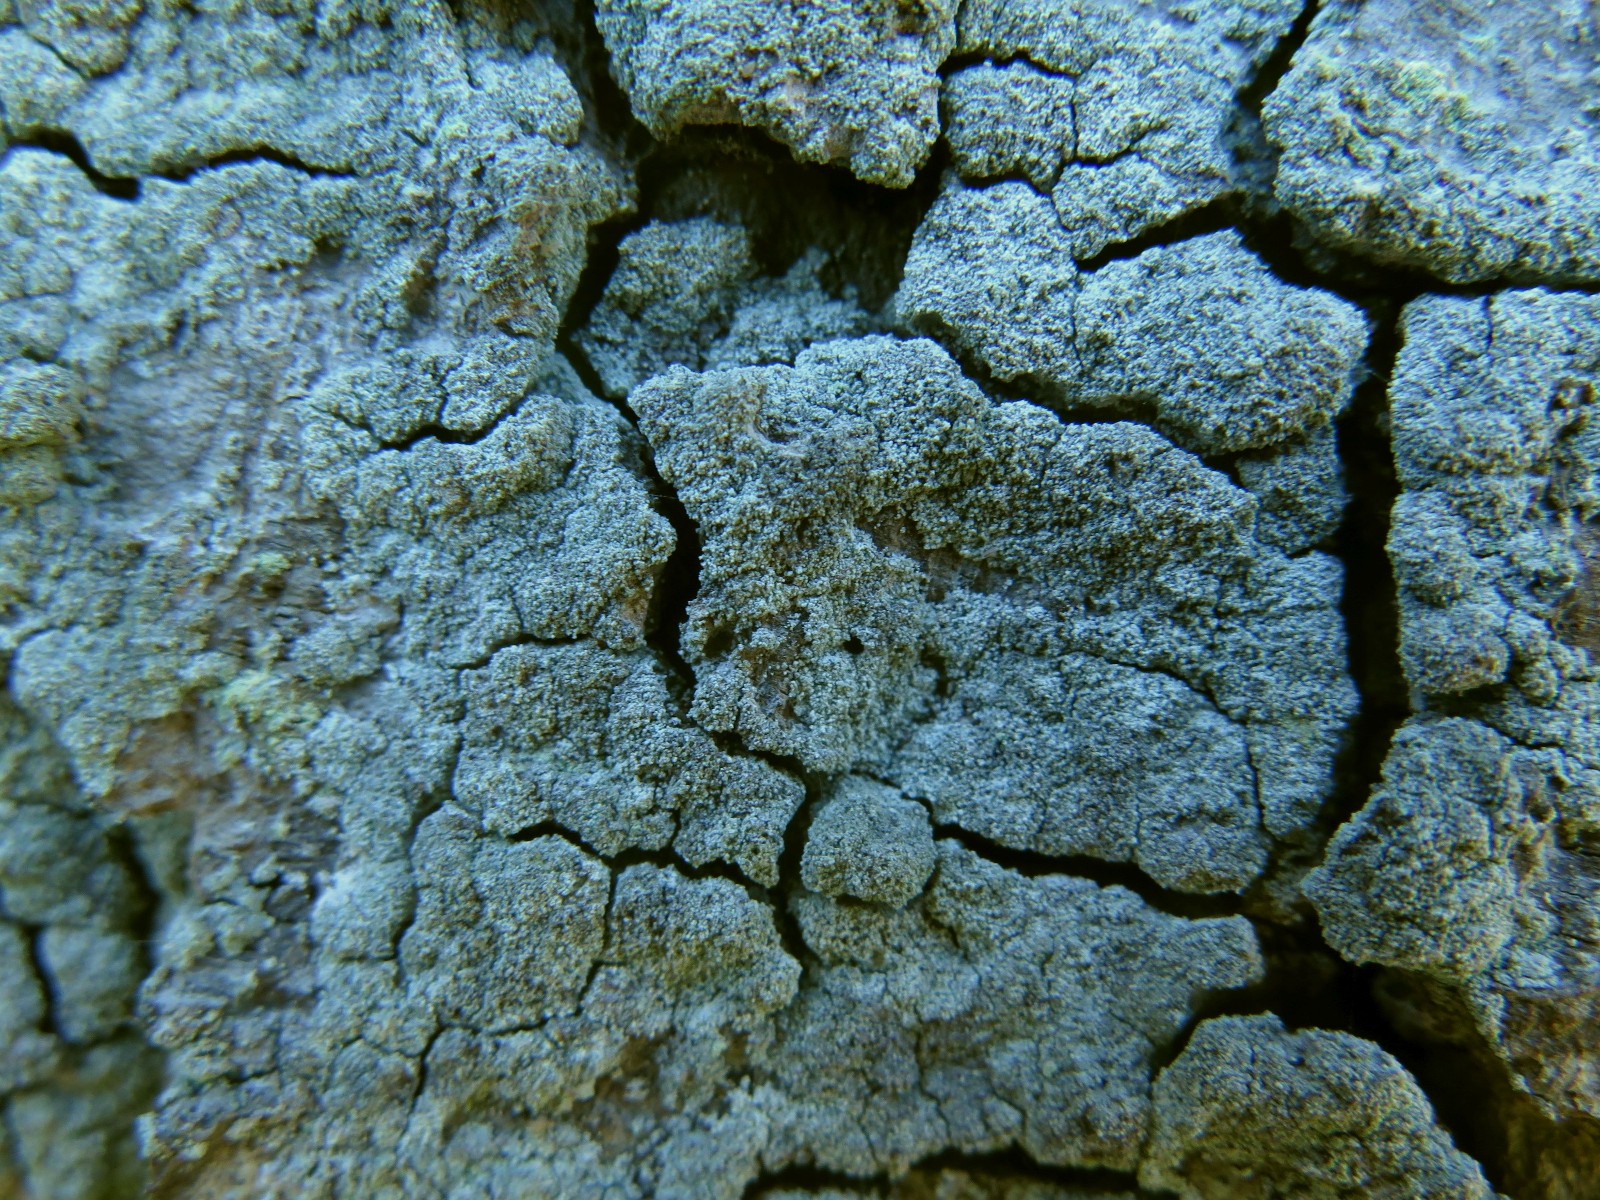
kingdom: Fungi
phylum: Ascomycota
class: Lecanoromycetes
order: Lecanorales
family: Stereocaulaceae
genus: Lepraria
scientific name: Lepraria incana
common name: almindelig støvlav
